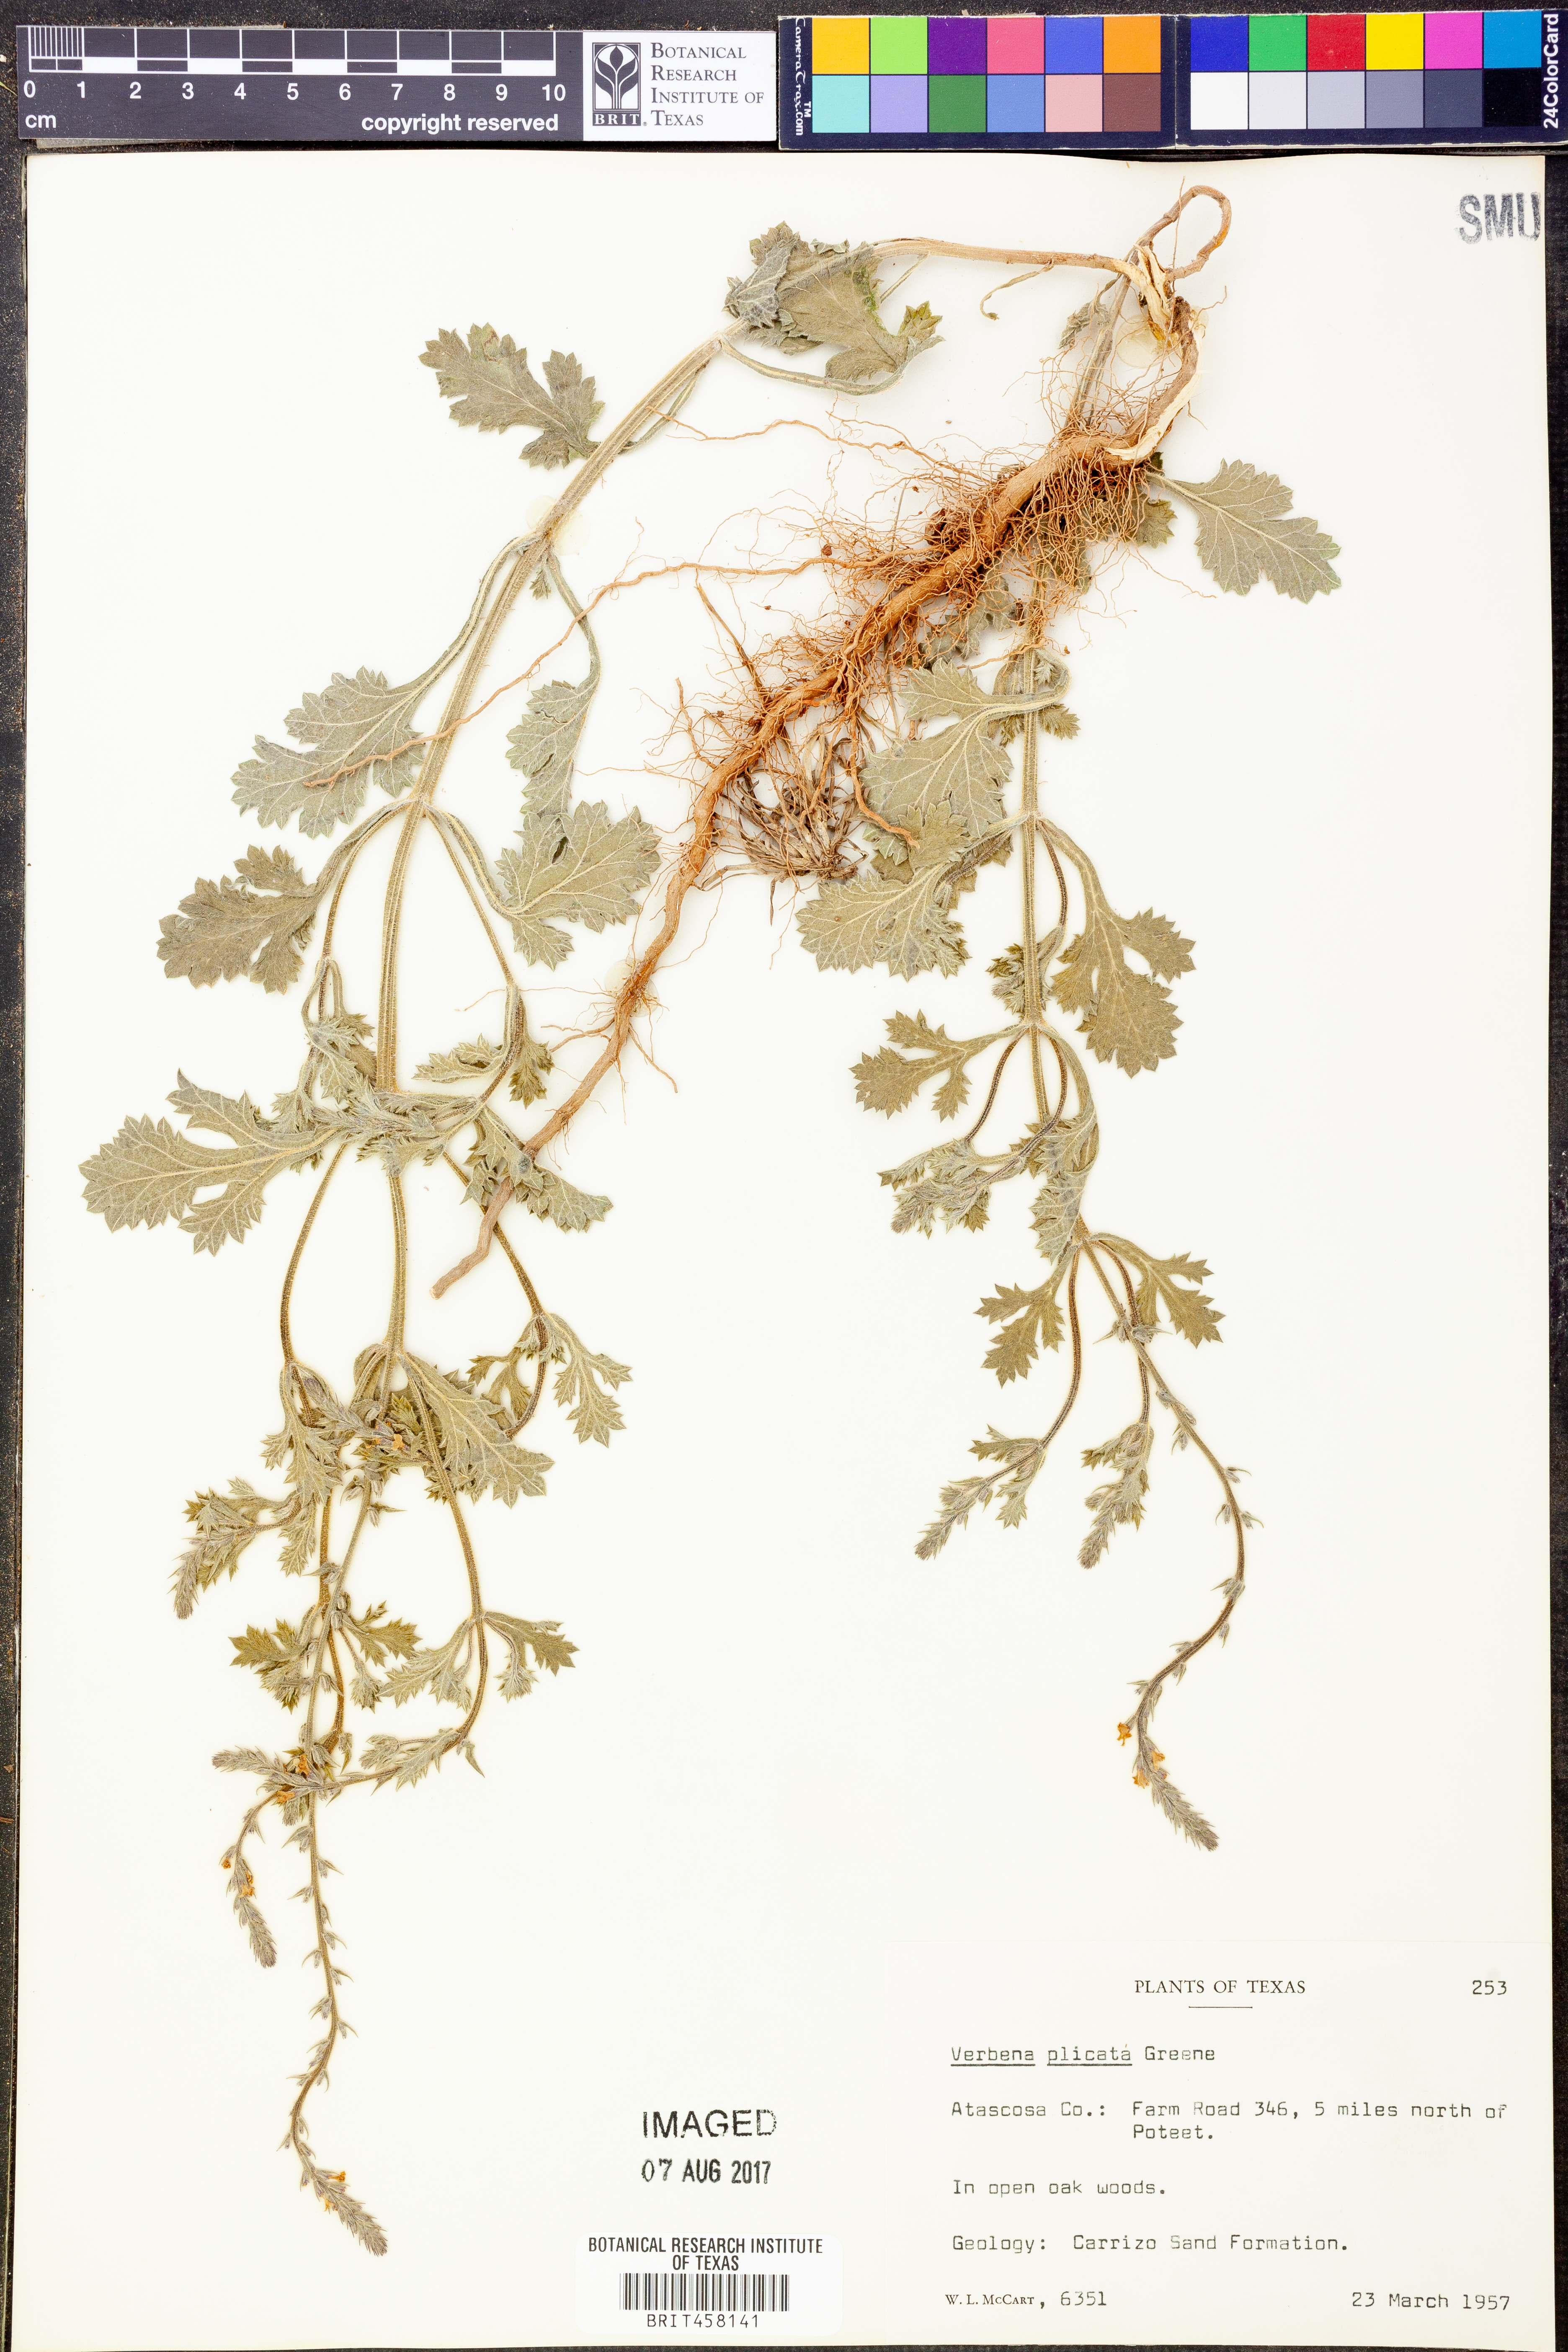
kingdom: Plantae
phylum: Tracheophyta
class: Magnoliopsida
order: Lamiales
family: Verbenaceae
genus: Verbena
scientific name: Verbena plicata
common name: Fan-leaf vervain
